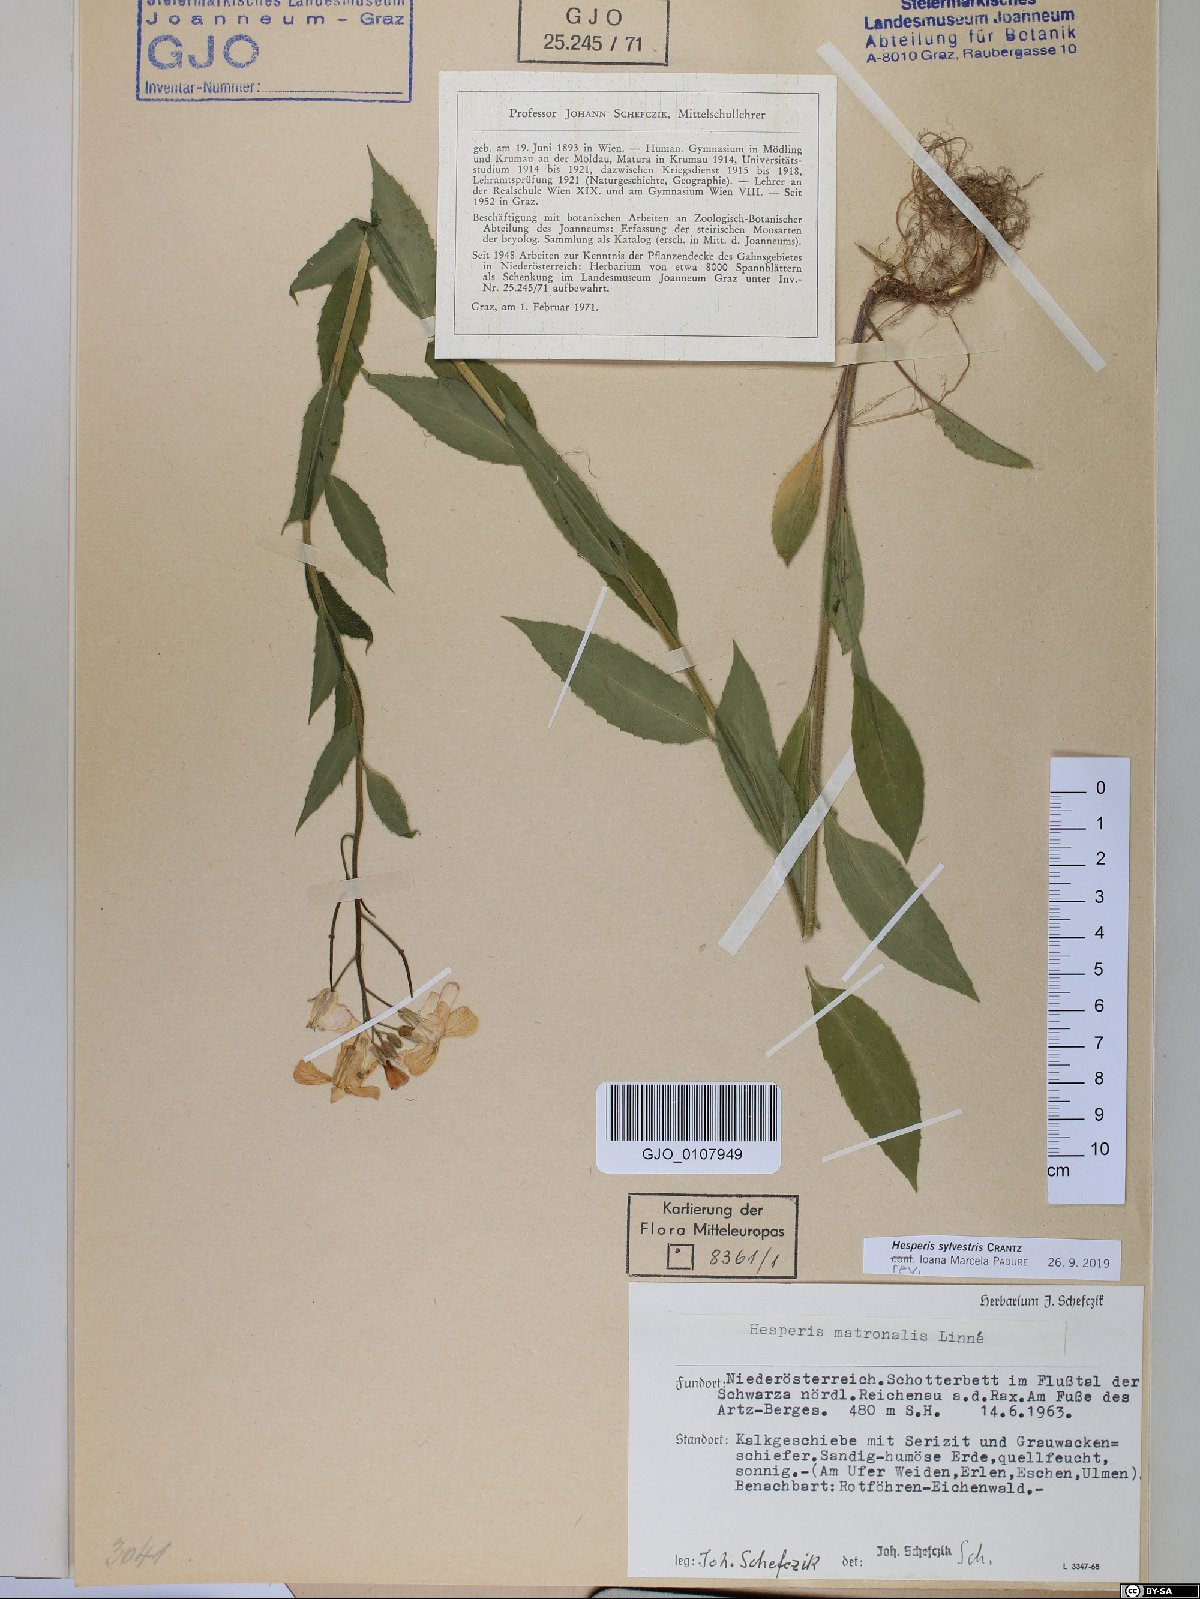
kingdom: Plantae
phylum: Tracheophyta
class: Magnoliopsida
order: Brassicales
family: Brassicaceae
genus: Hesperis
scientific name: Hesperis sylvestris
